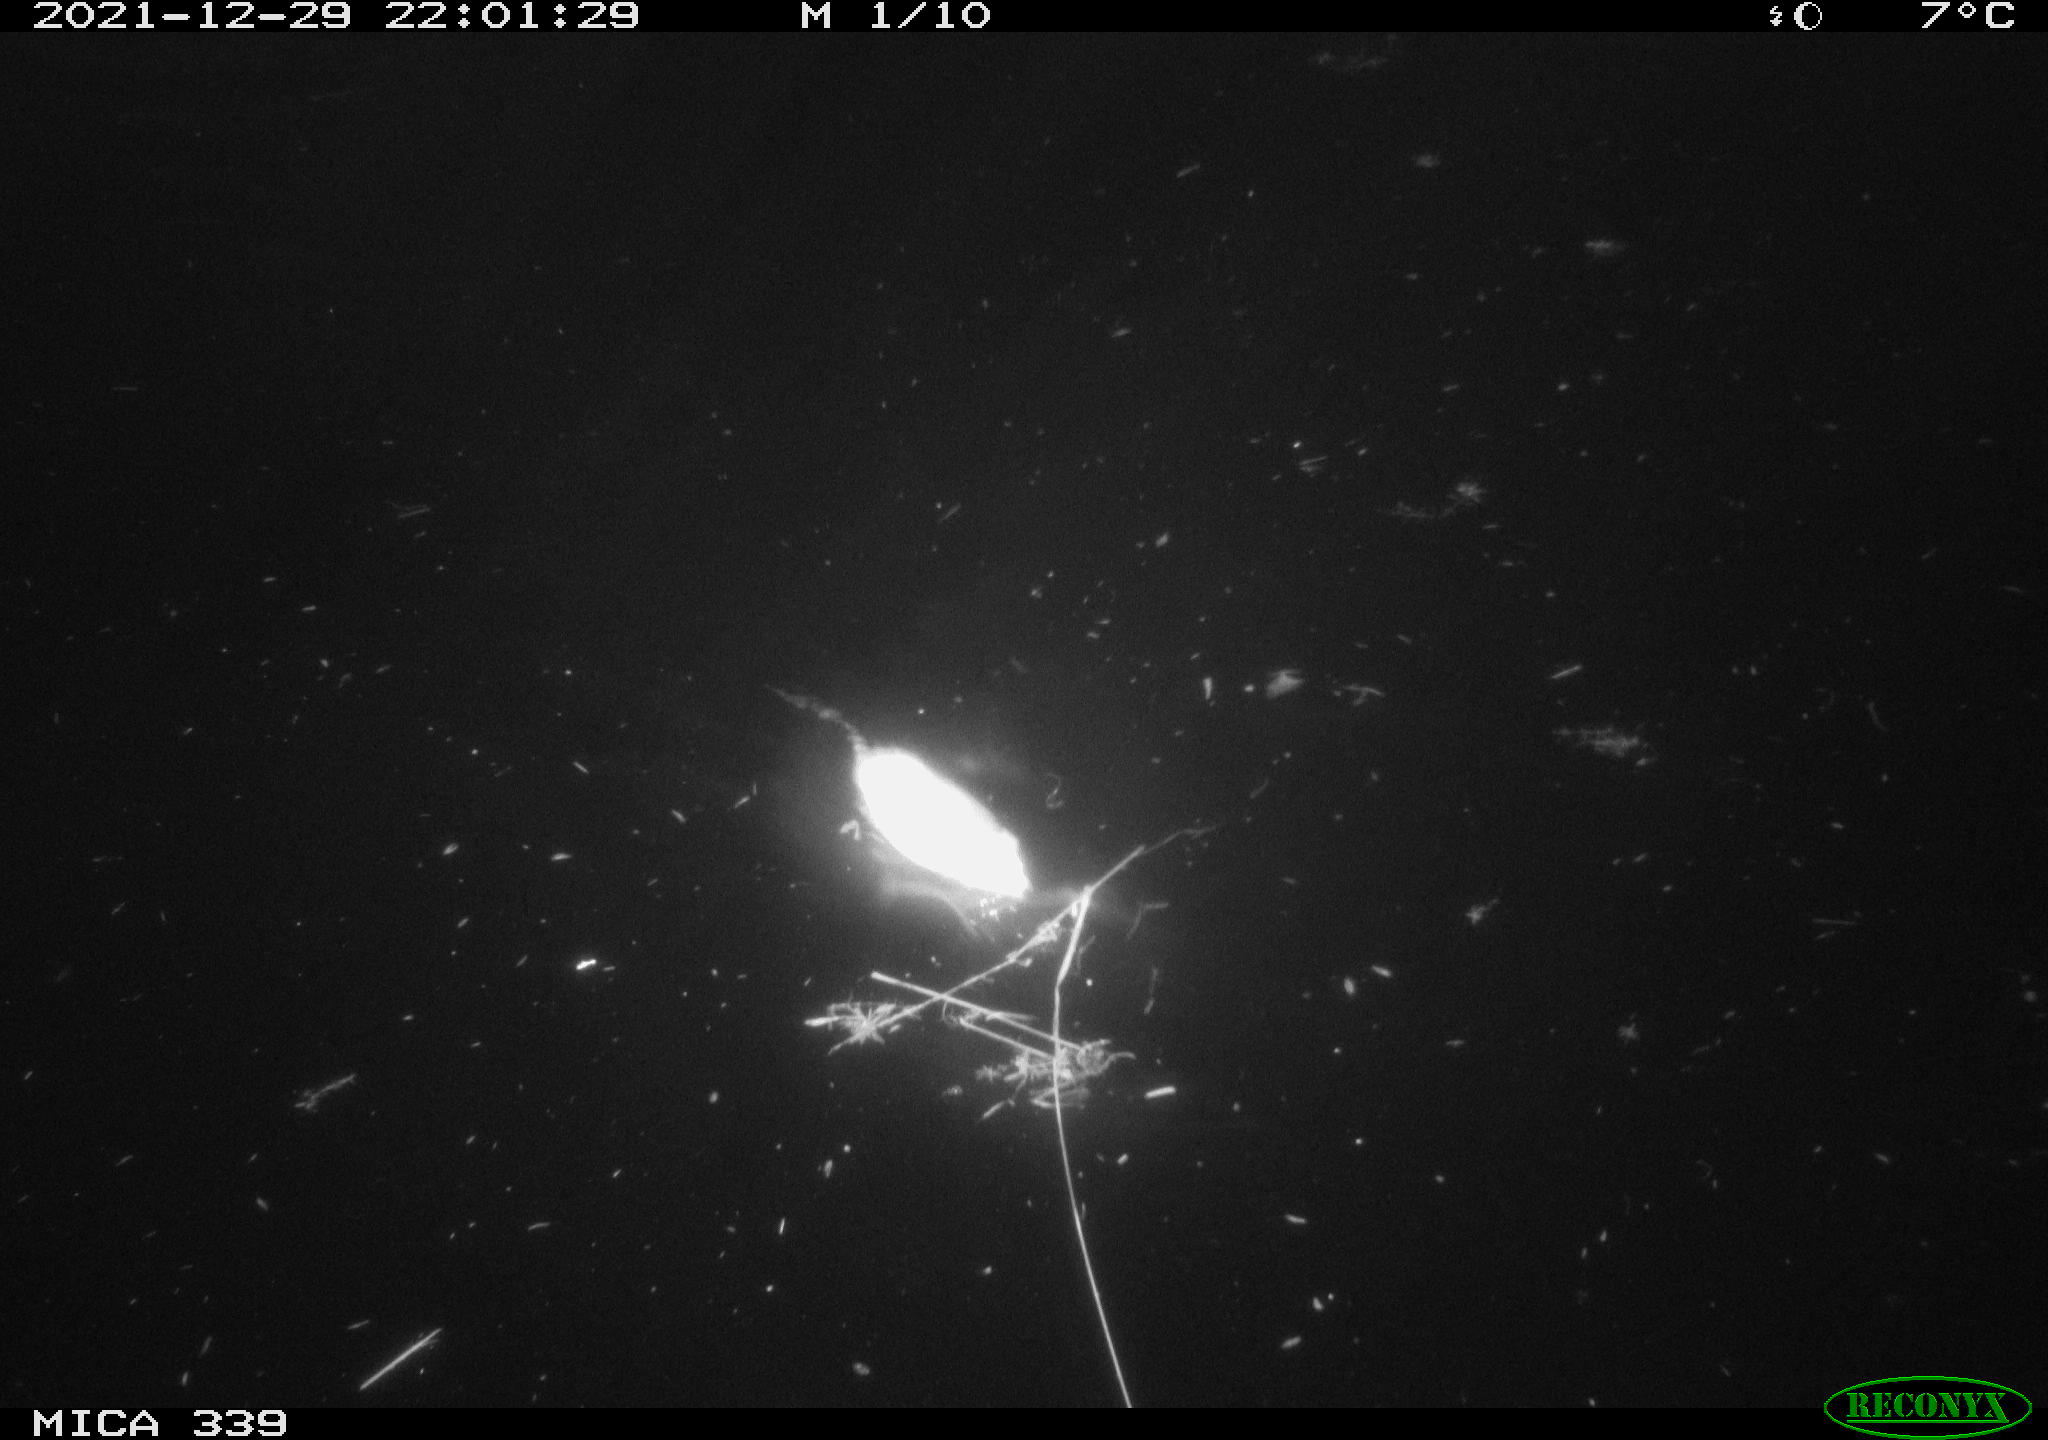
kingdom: Animalia
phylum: Chordata
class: Mammalia
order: Rodentia
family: Muridae
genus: Rattus
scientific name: Rattus norvegicus
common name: Brown rat
